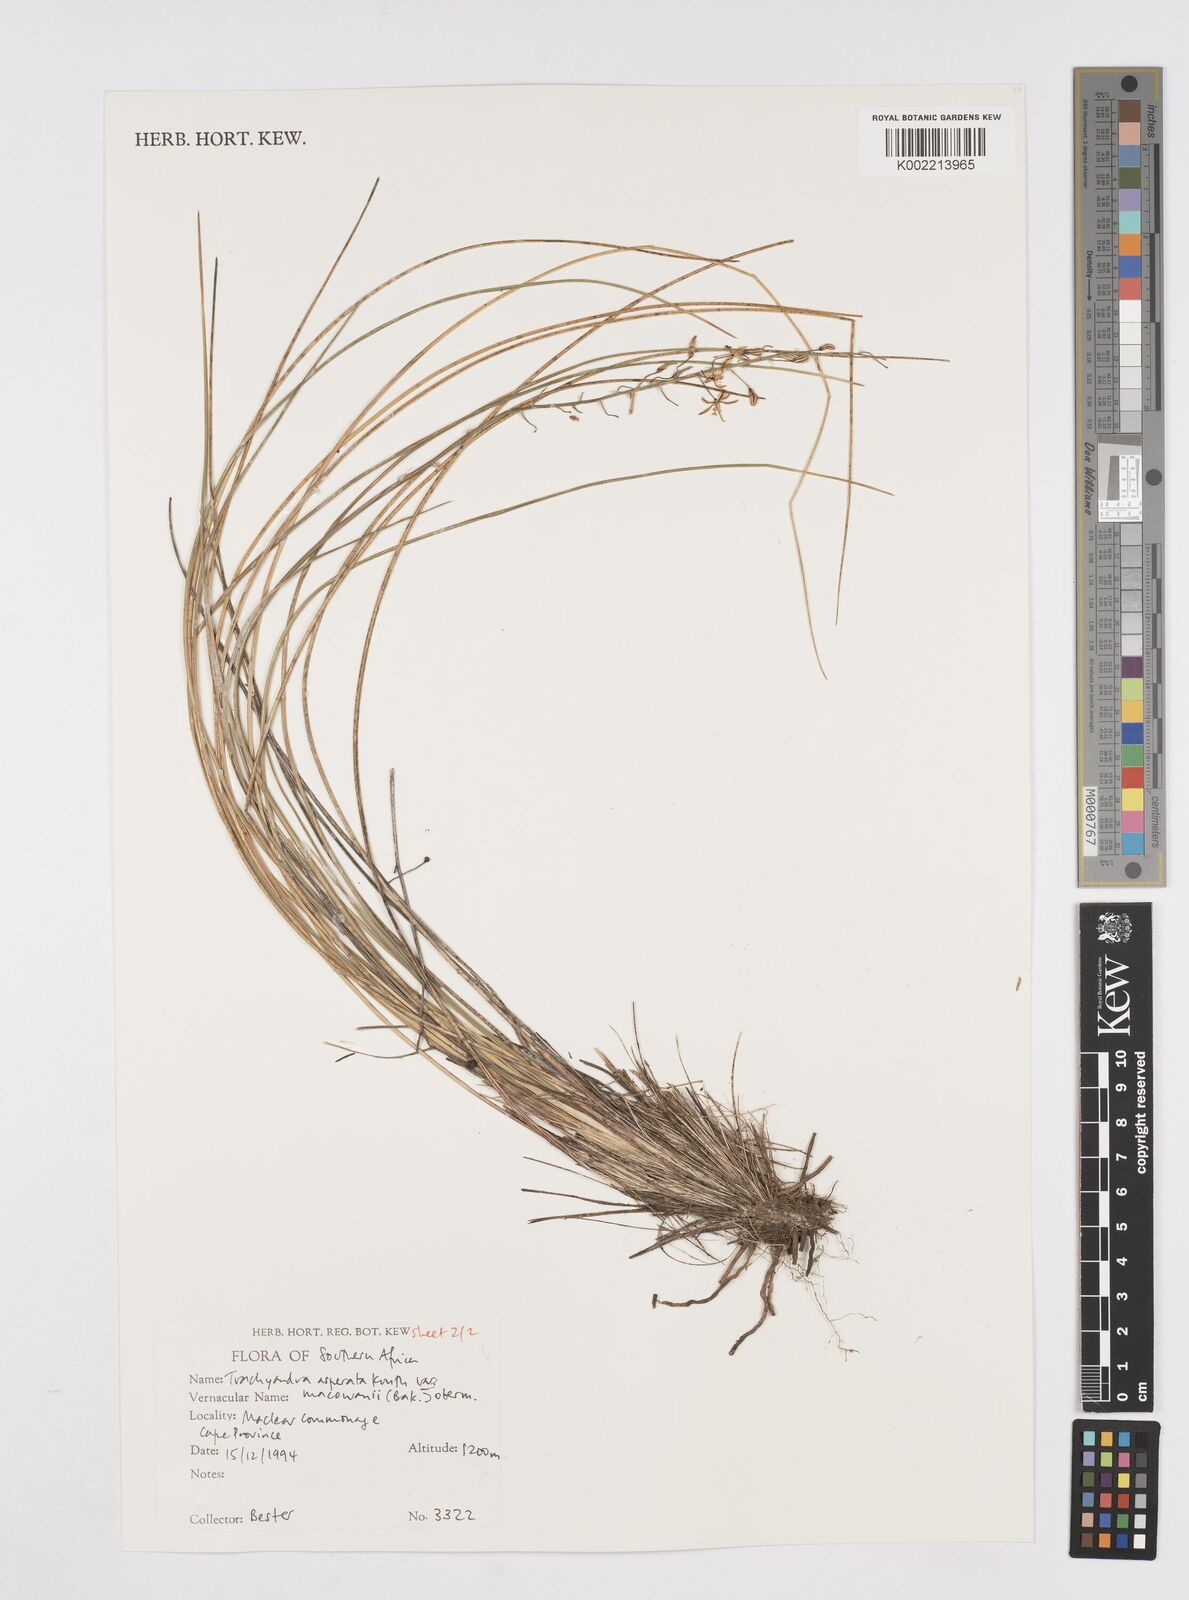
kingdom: Plantae
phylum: Tracheophyta
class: Liliopsida
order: Asparagales
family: Asphodelaceae
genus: Trachyandra
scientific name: Trachyandra asperata
